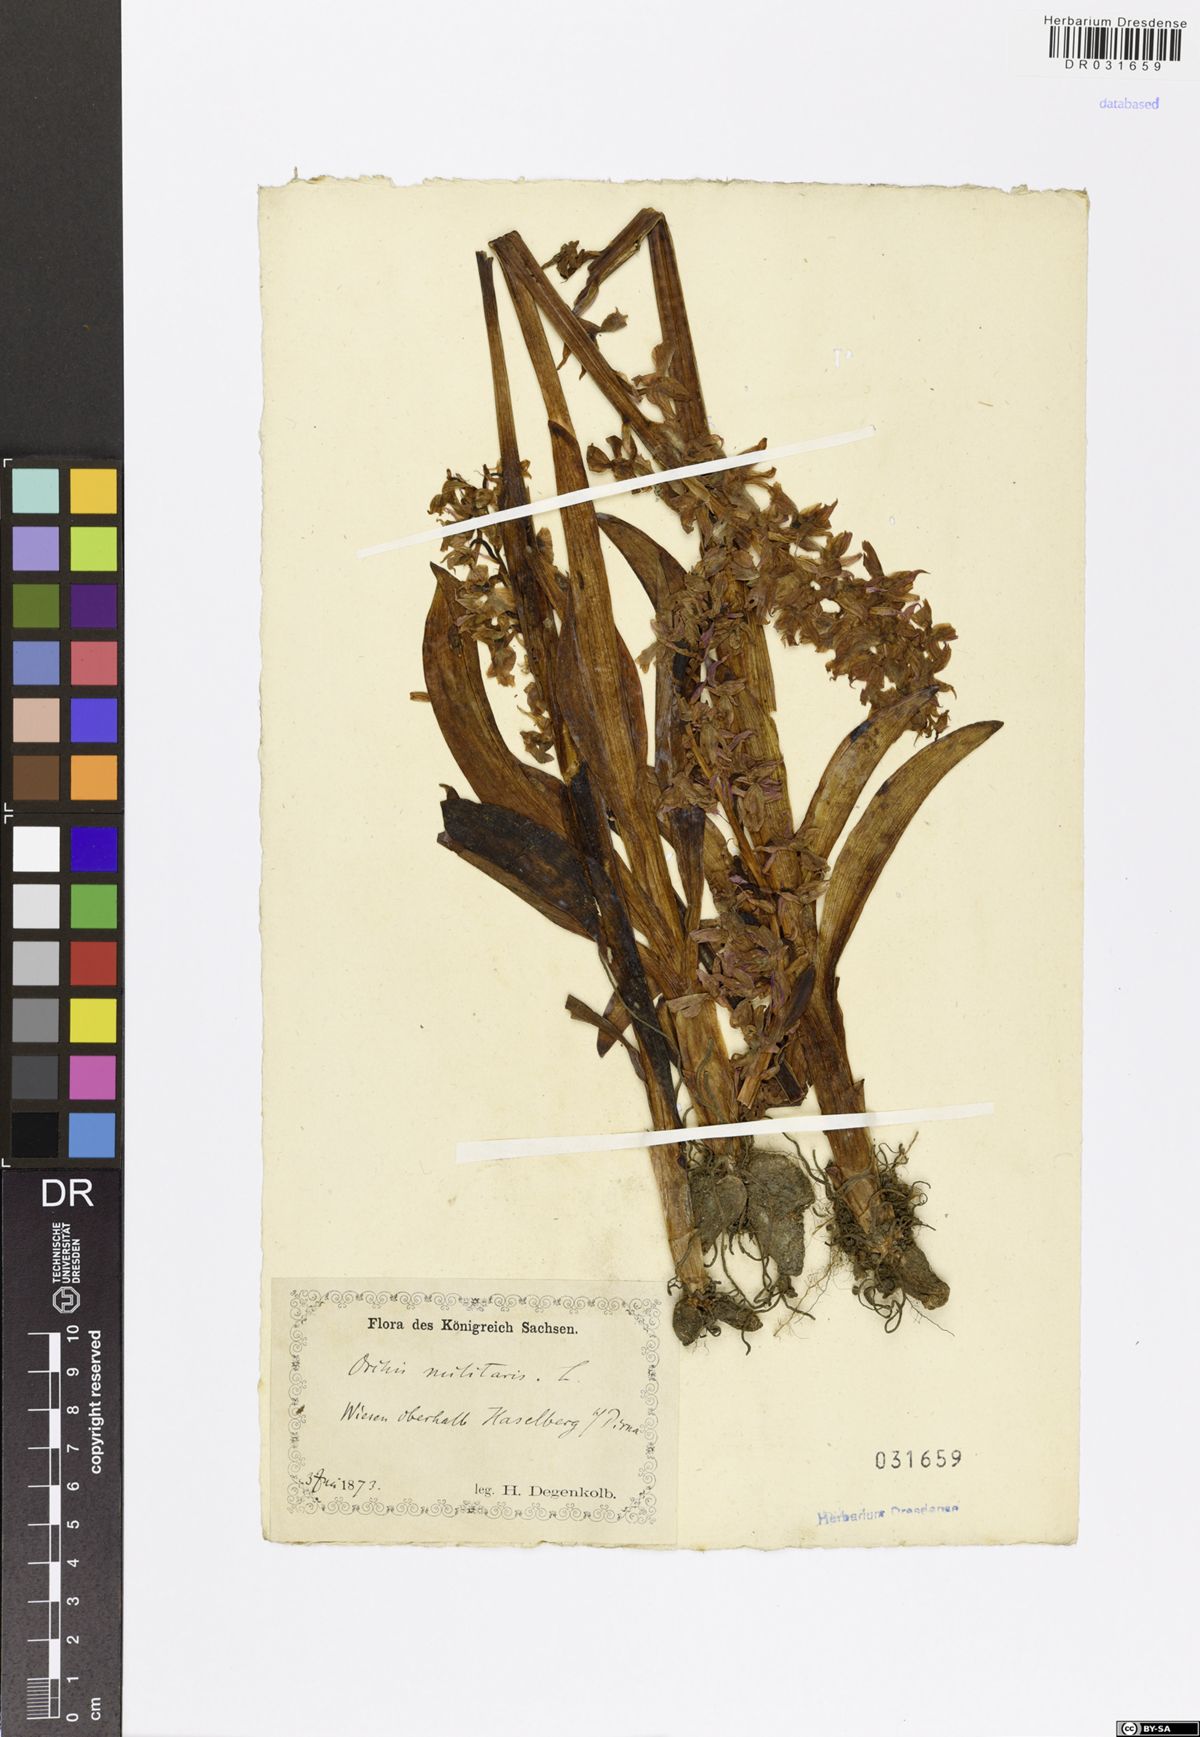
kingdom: Plantae
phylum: Tracheophyta
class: Liliopsida
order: Asparagales
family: Orchidaceae
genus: Orchis
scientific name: Orchis militaris
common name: Military orchid
